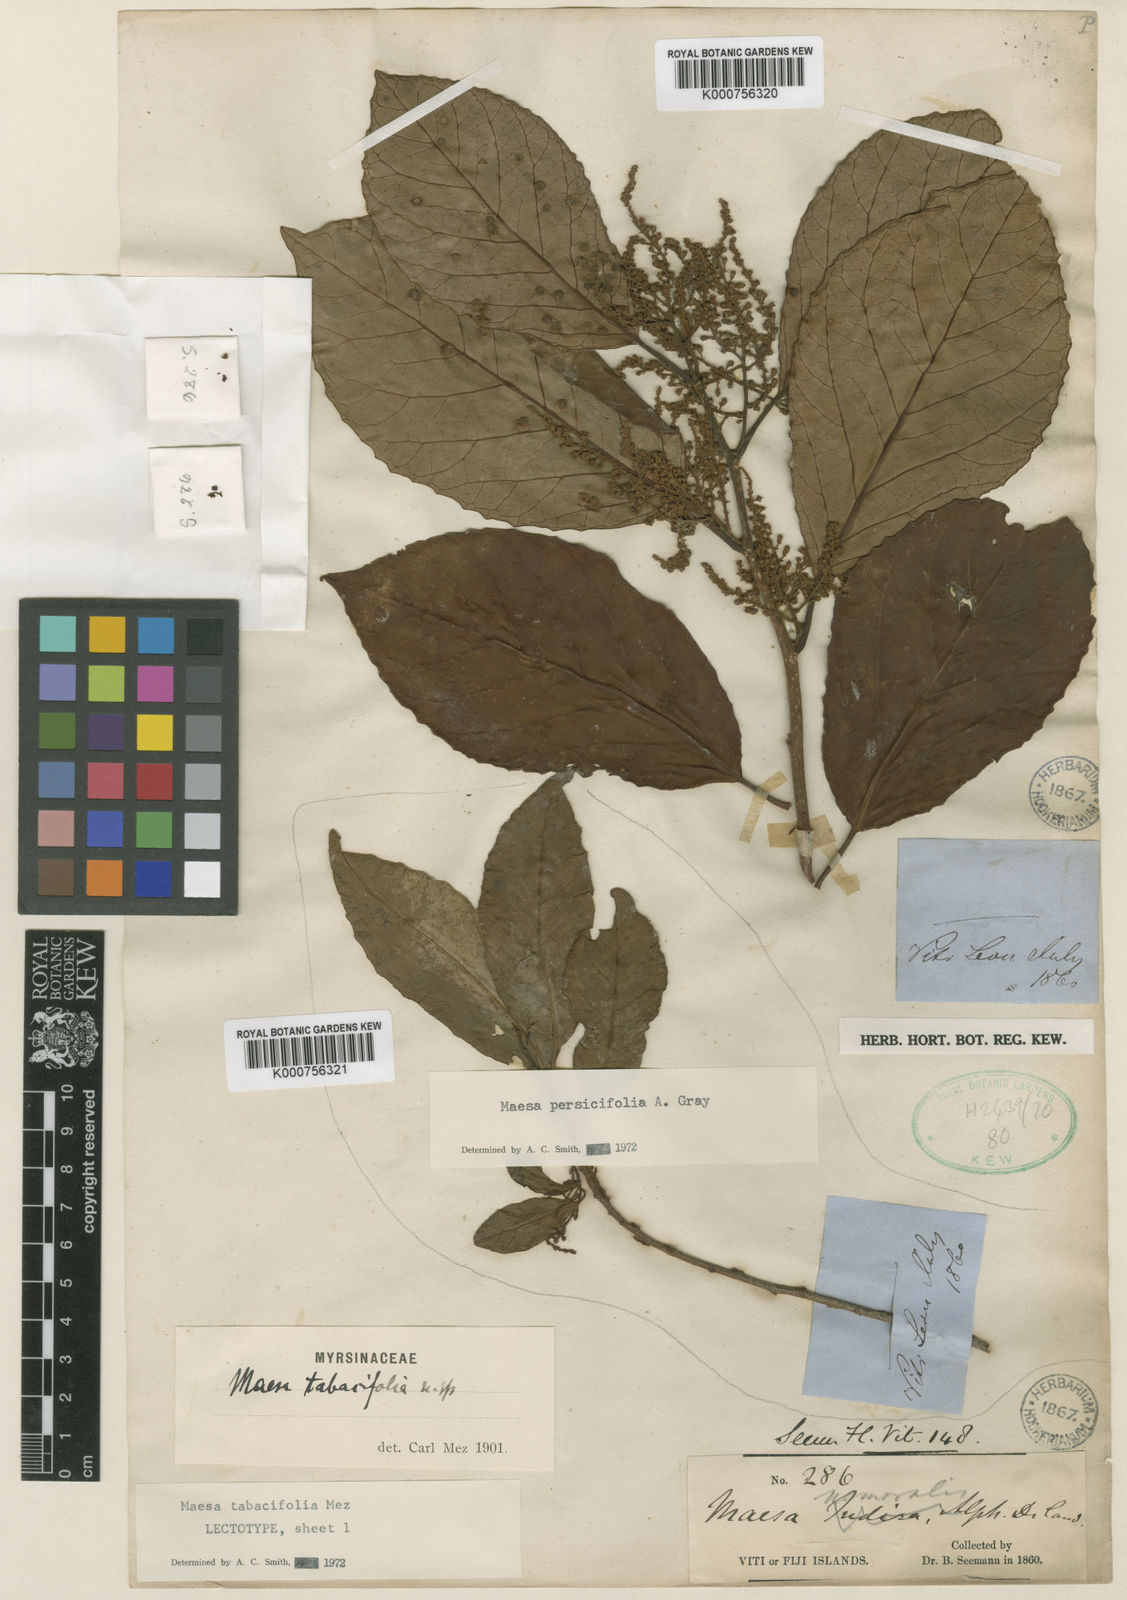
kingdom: Plantae
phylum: Tracheophyta
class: Magnoliopsida
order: Ericales
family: Primulaceae
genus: Maesa
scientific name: Maesa tabacifolia
